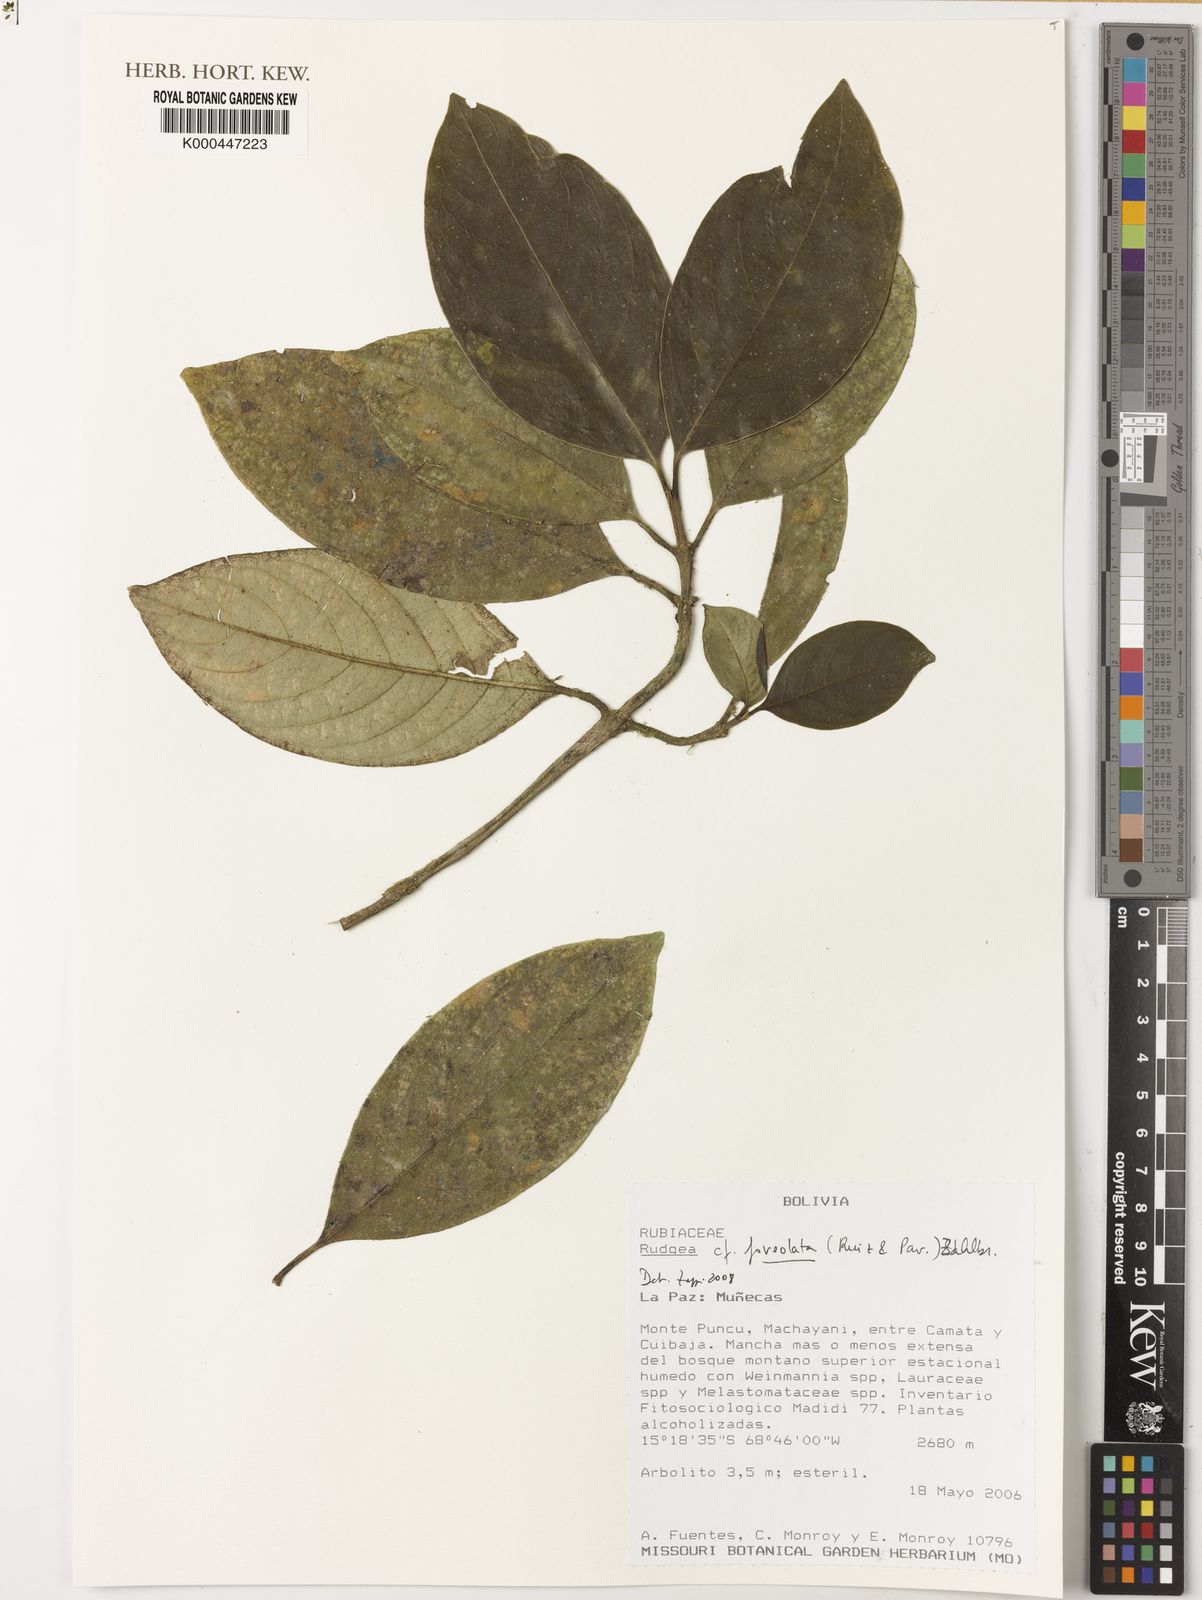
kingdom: Plantae
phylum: Tracheophyta
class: Magnoliopsida
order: Gentianales
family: Rubiaceae
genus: Rudgea
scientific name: Rudgea foveolata
